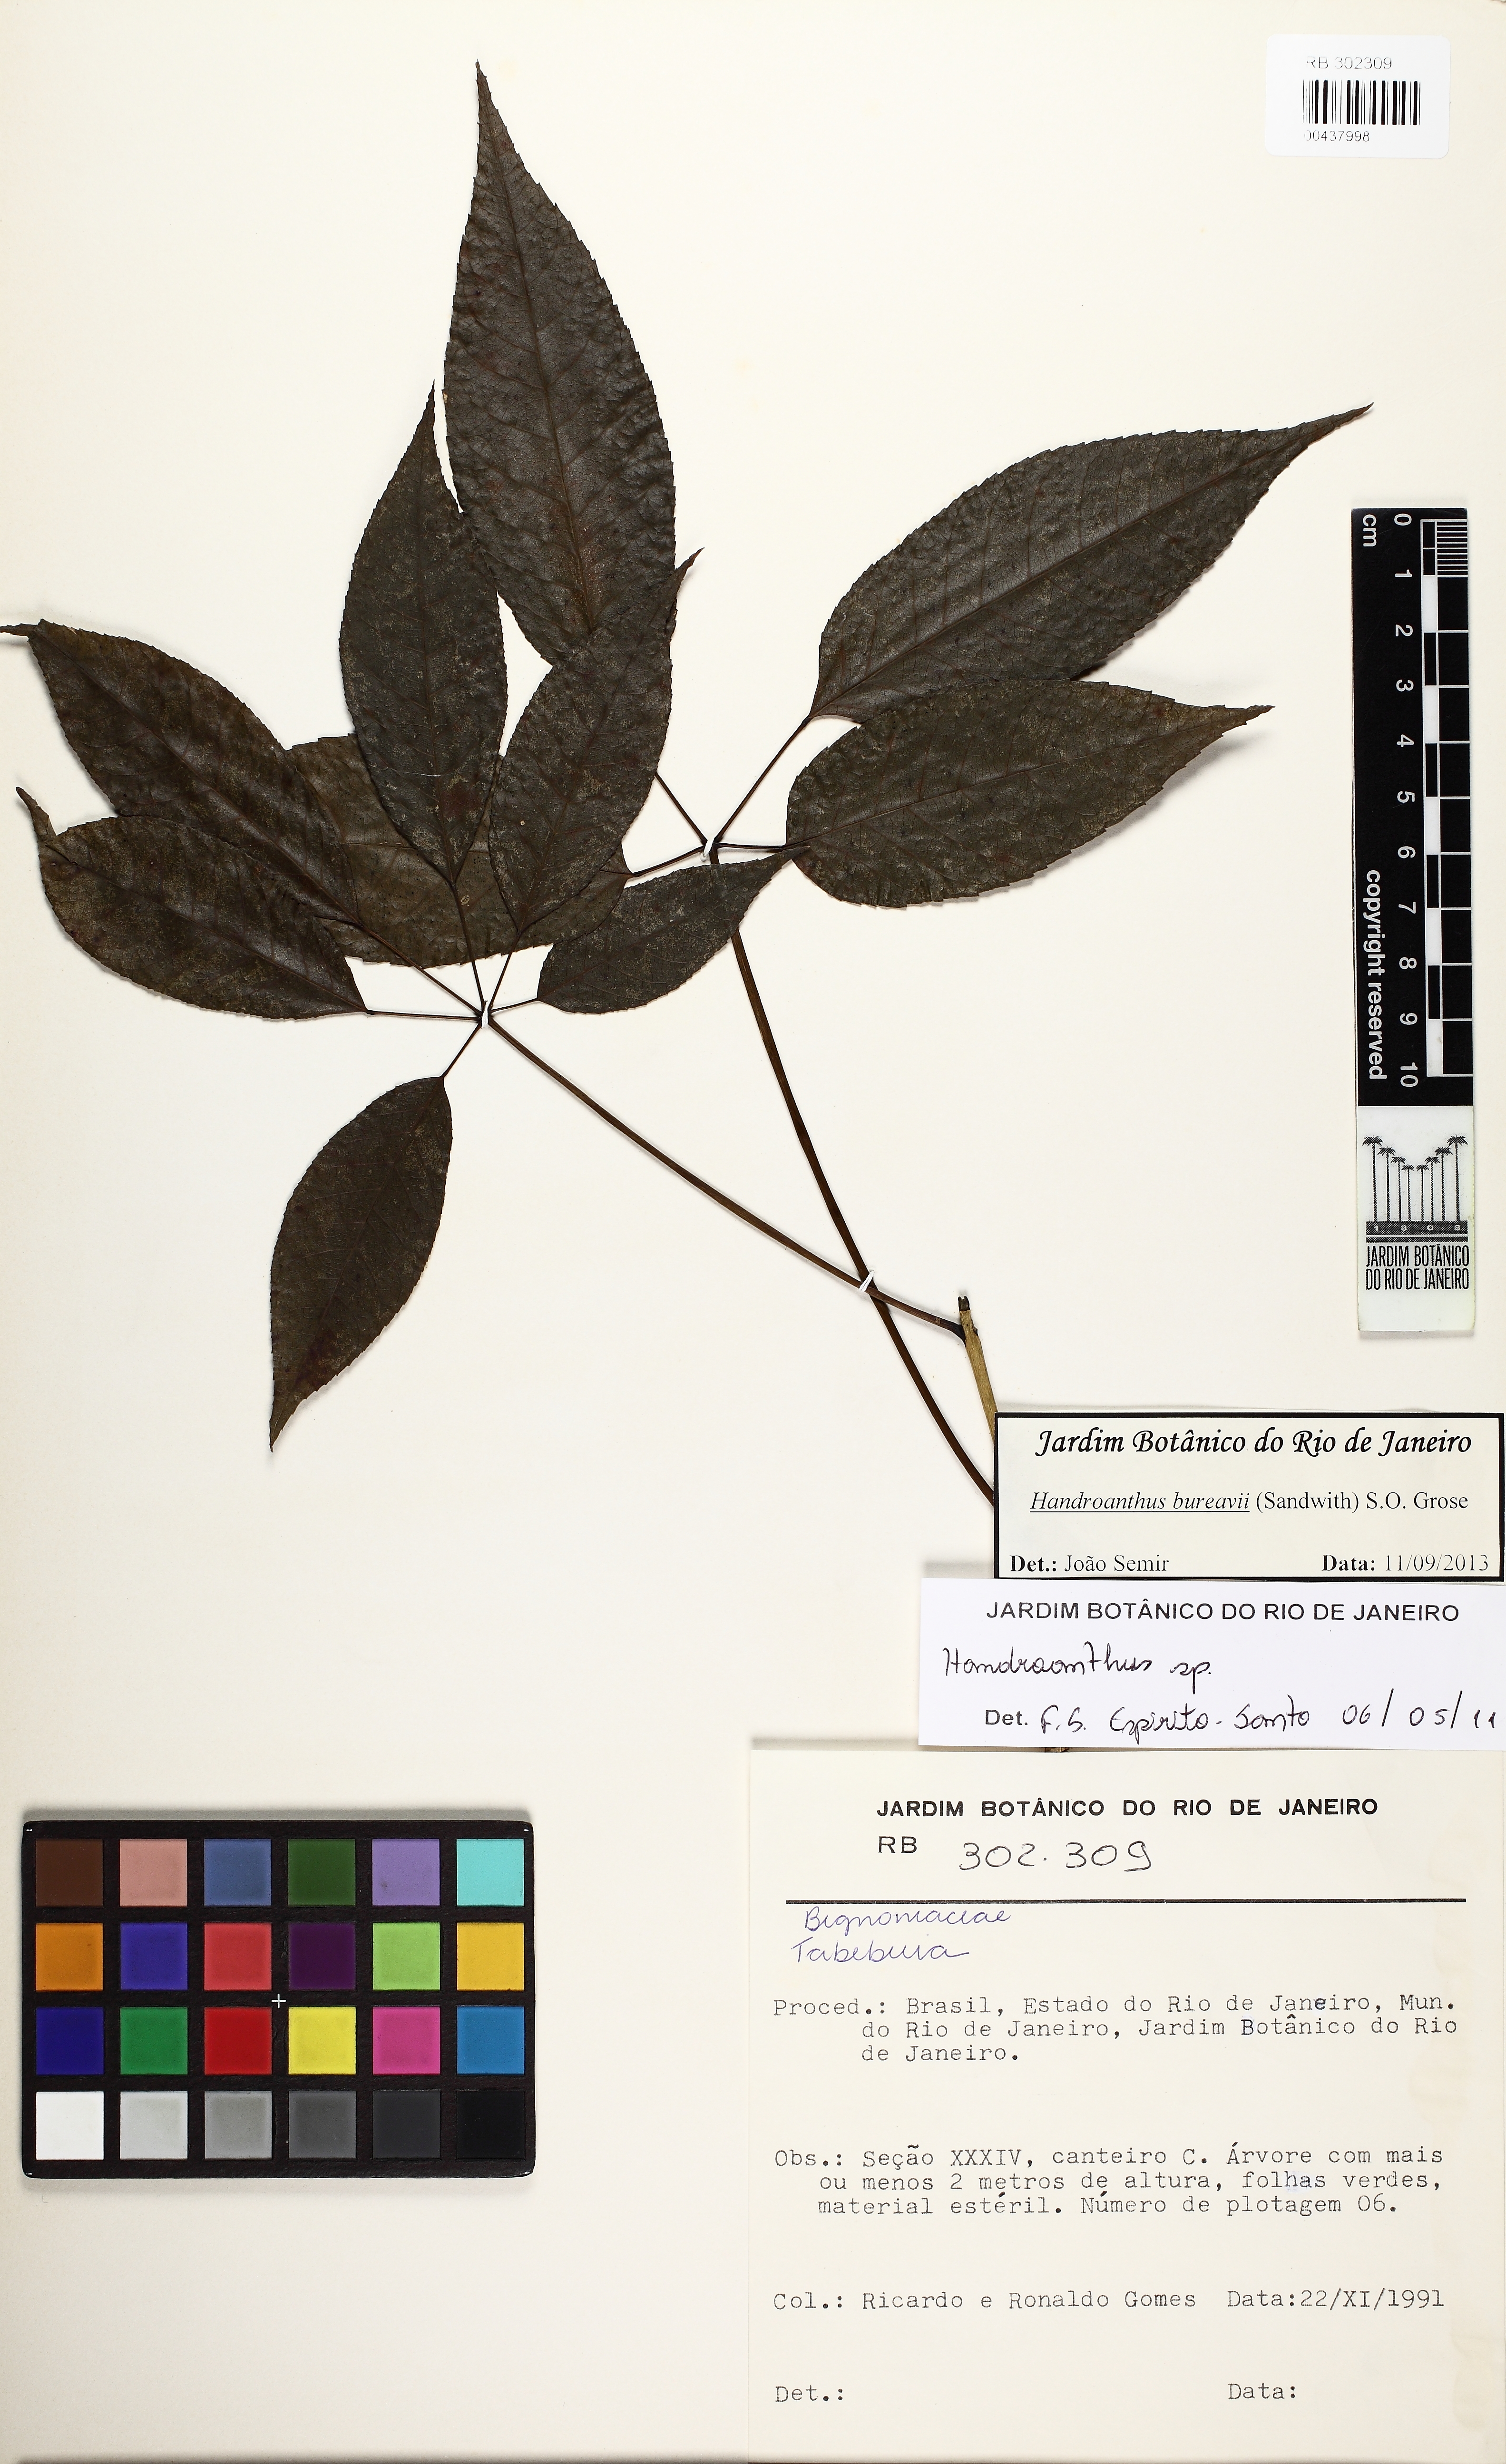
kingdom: Plantae
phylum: Tracheophyta
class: Magnoliopsida
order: Lamiales
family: Bignoniaceae
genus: Handroanthus
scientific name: Handroanthus bureavii
